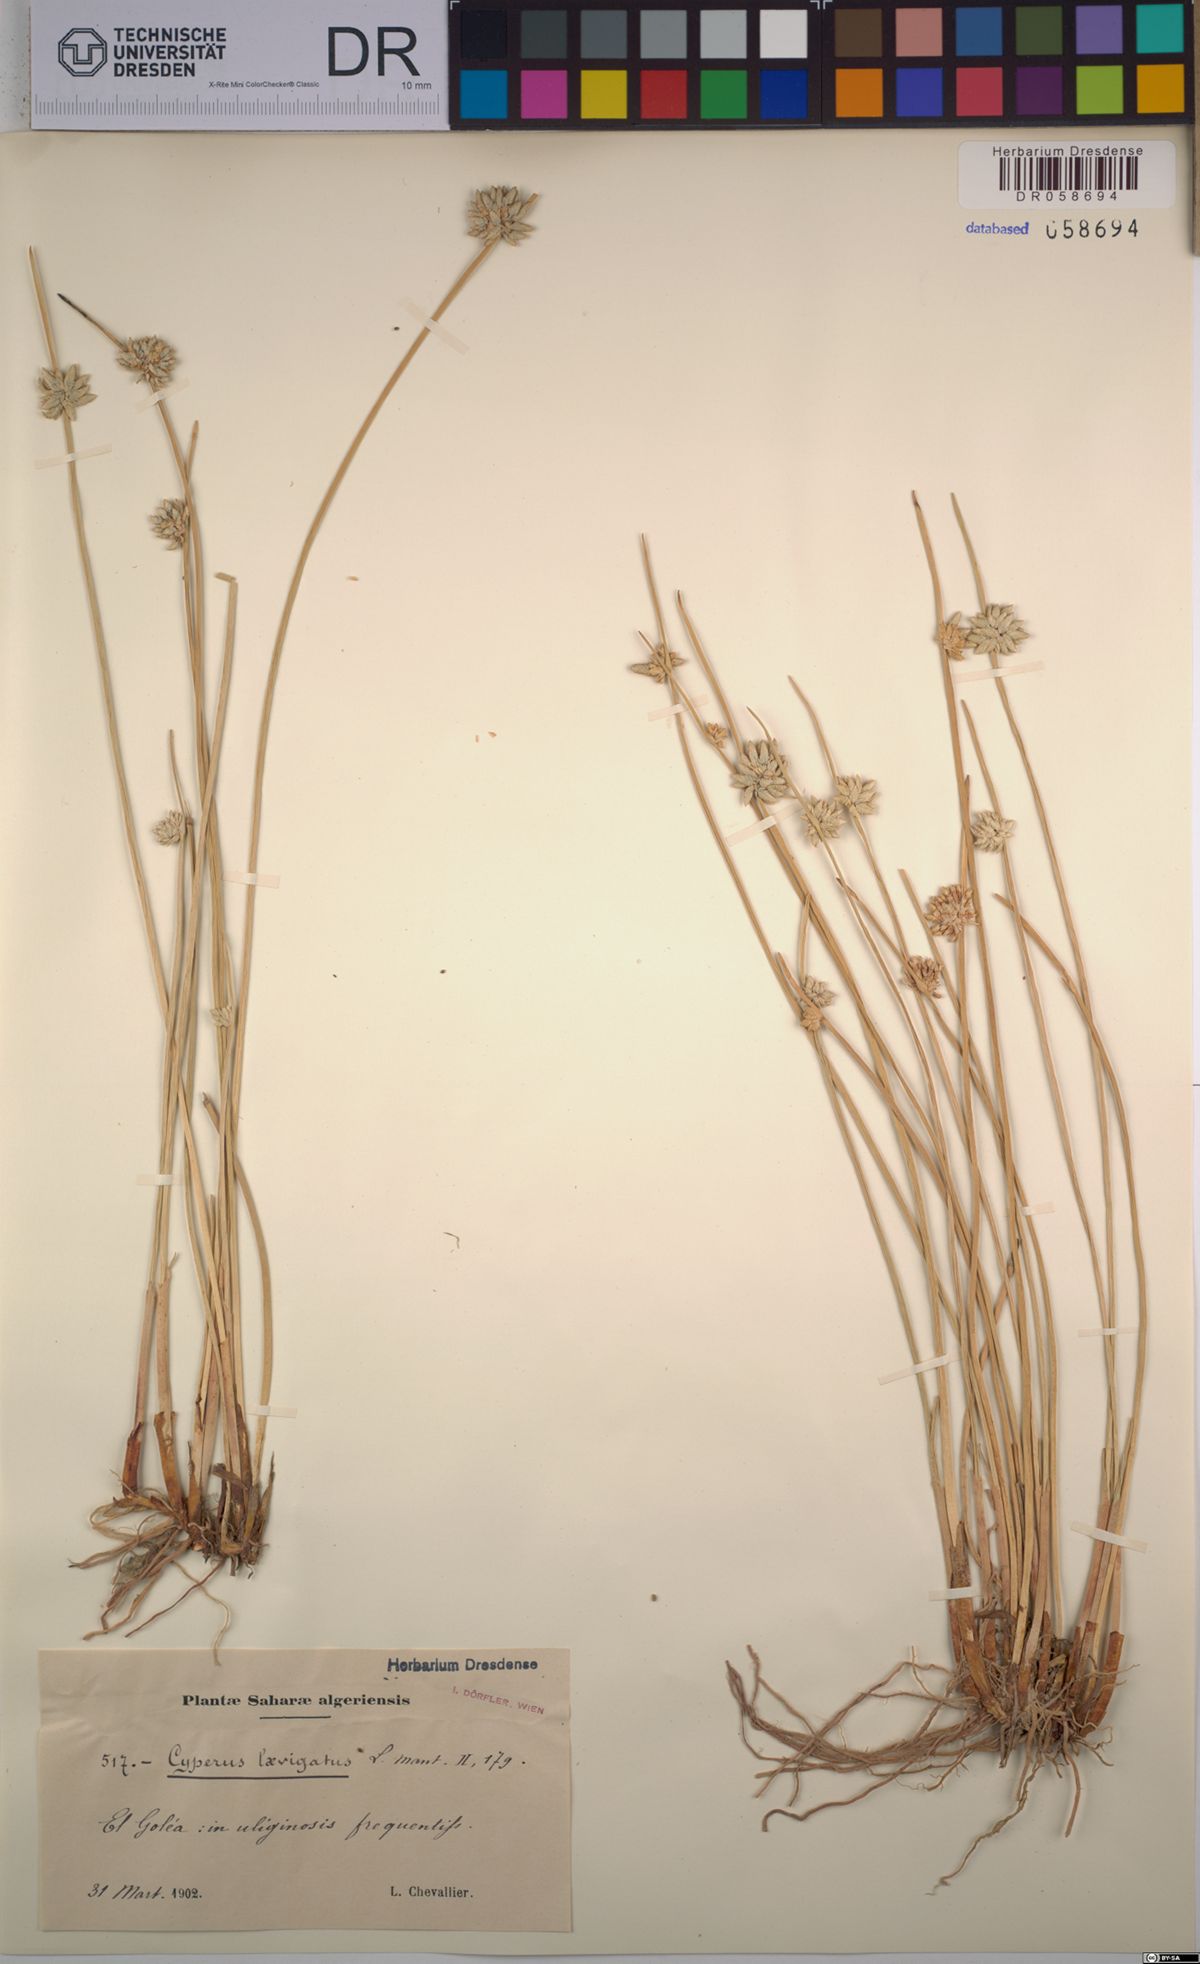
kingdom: Plantae
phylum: Tracheophyta
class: Liliopsida
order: Poales
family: Cyperaceae
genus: Cyperus
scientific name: Cyperus laevigatus
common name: Smooth flat sedge
